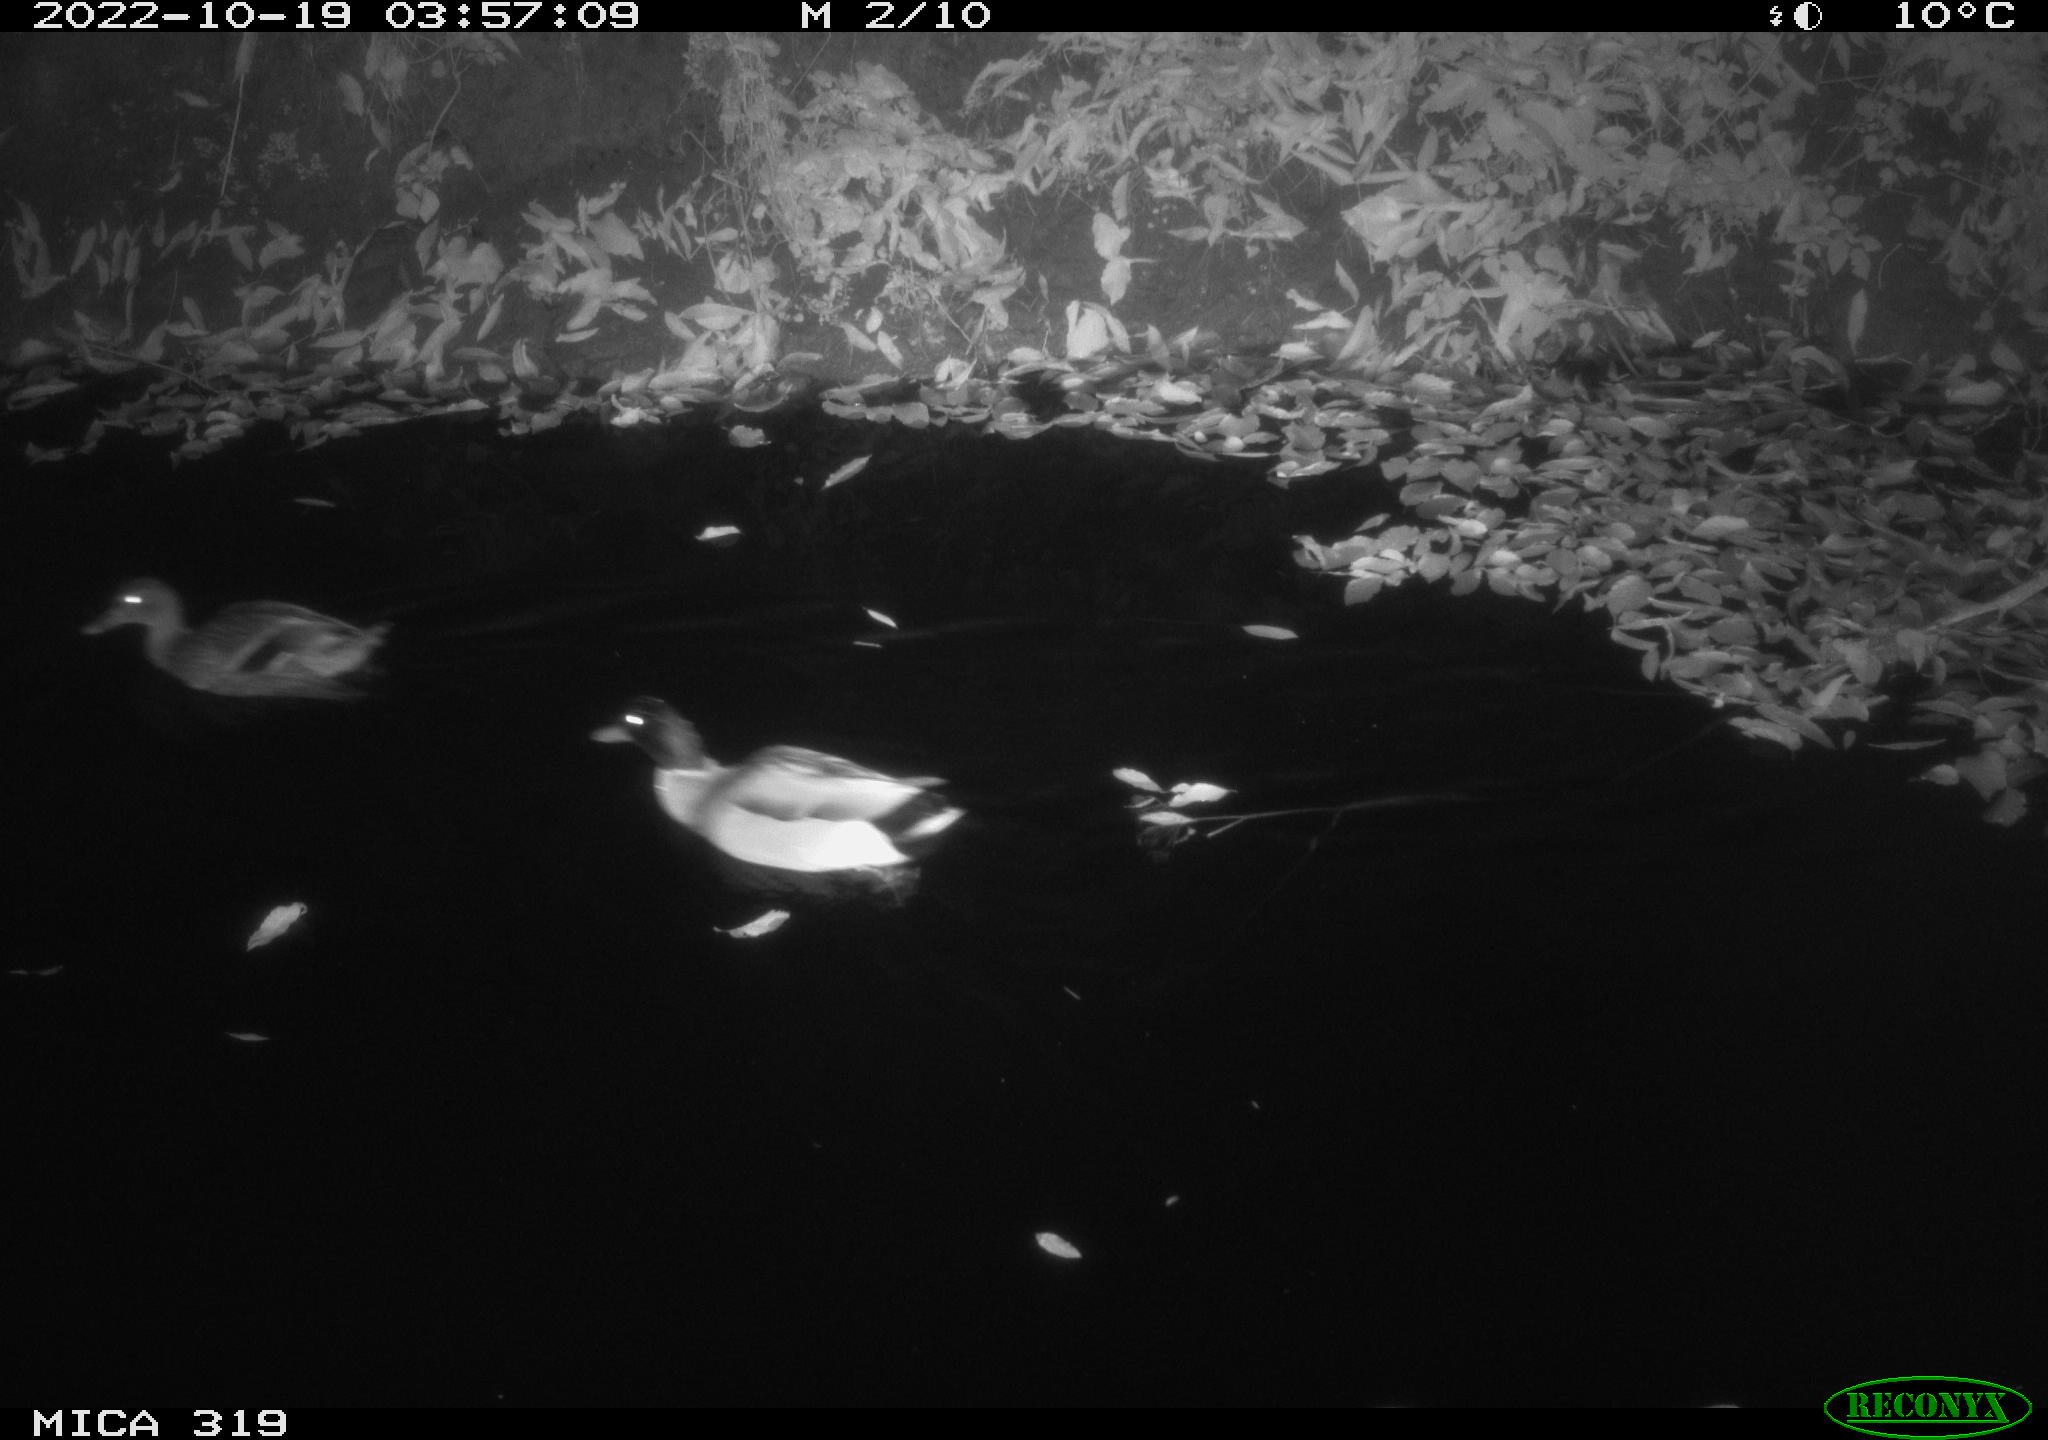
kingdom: Animalia
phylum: Chordata
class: Aves
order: Anseriformes
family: Anatidae
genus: Anas
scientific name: Anas
